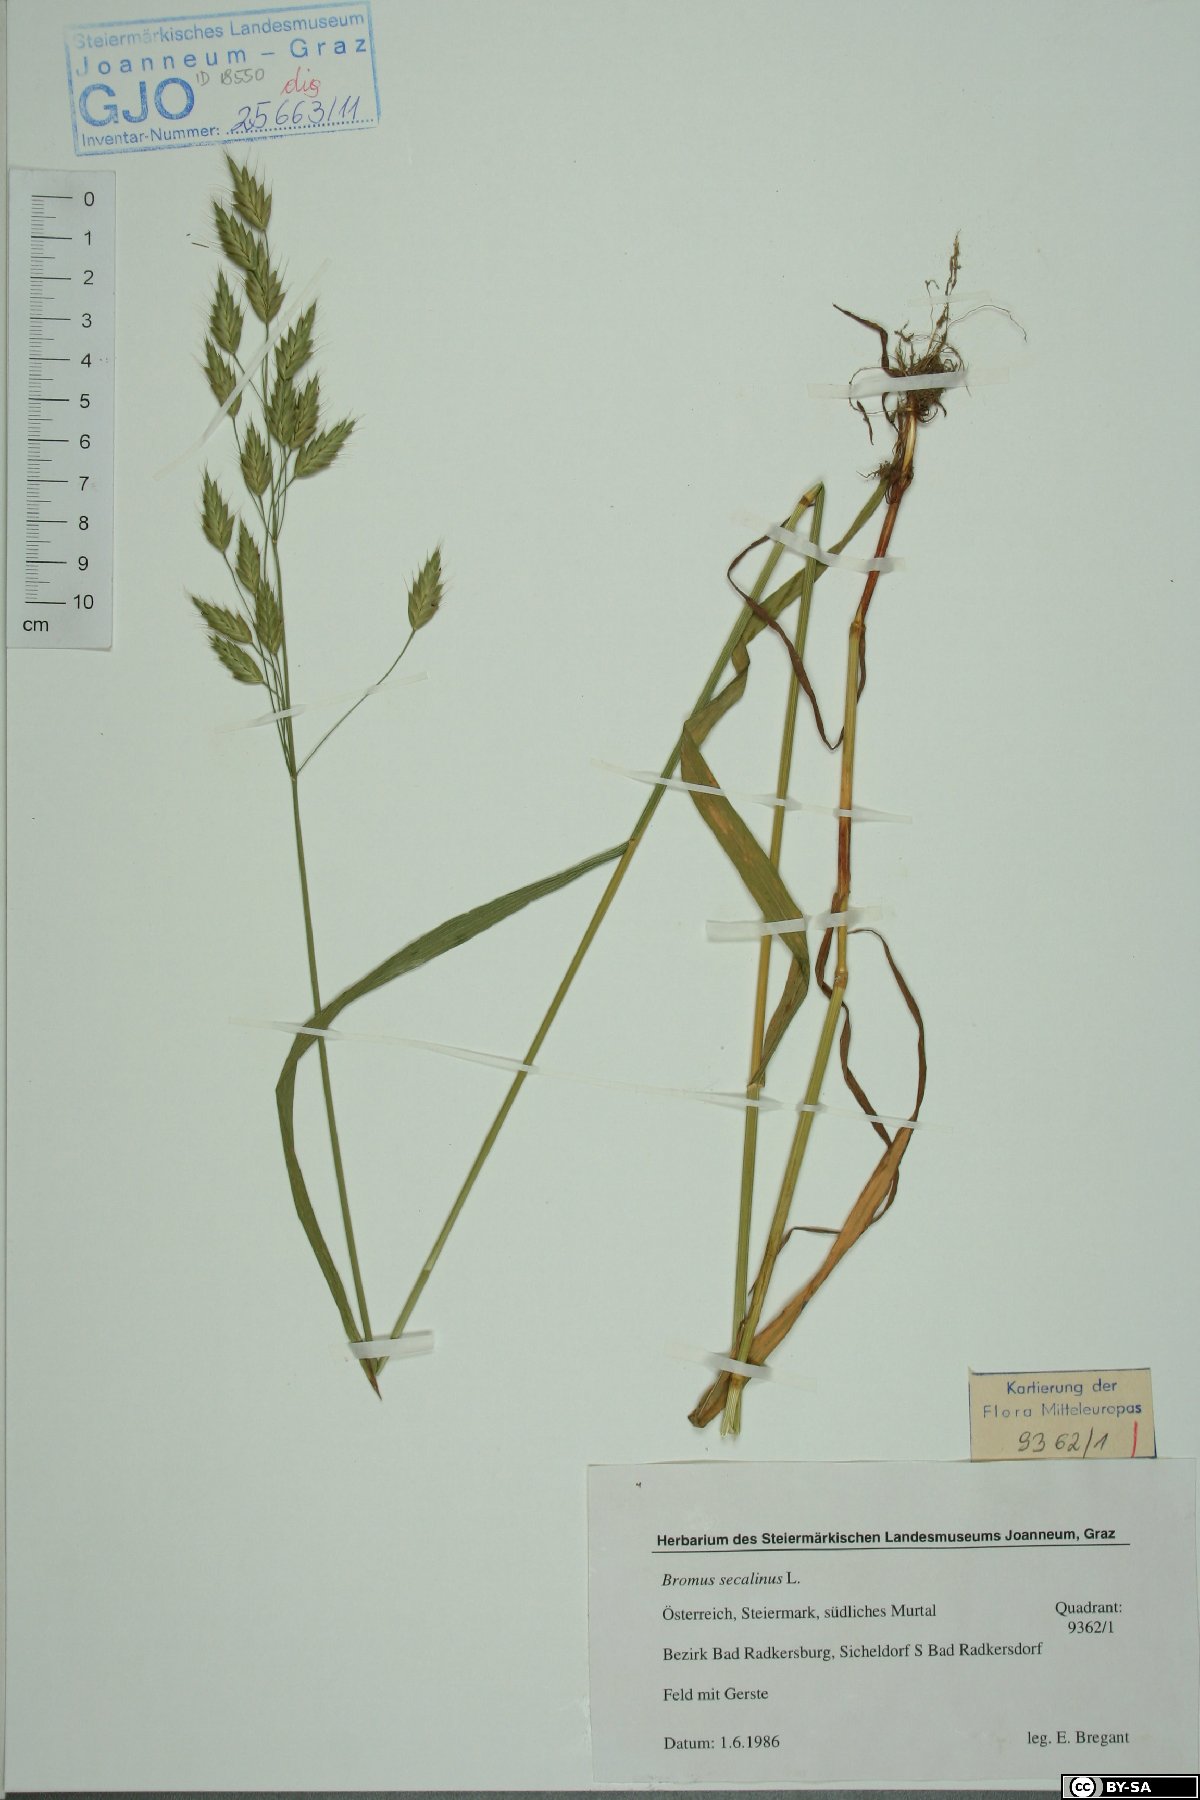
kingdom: Plantae
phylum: Tracheophyta
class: Liliopsida
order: Poales
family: Poaceae
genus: Bromus
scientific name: Bromus secalinus
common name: Rye brome
